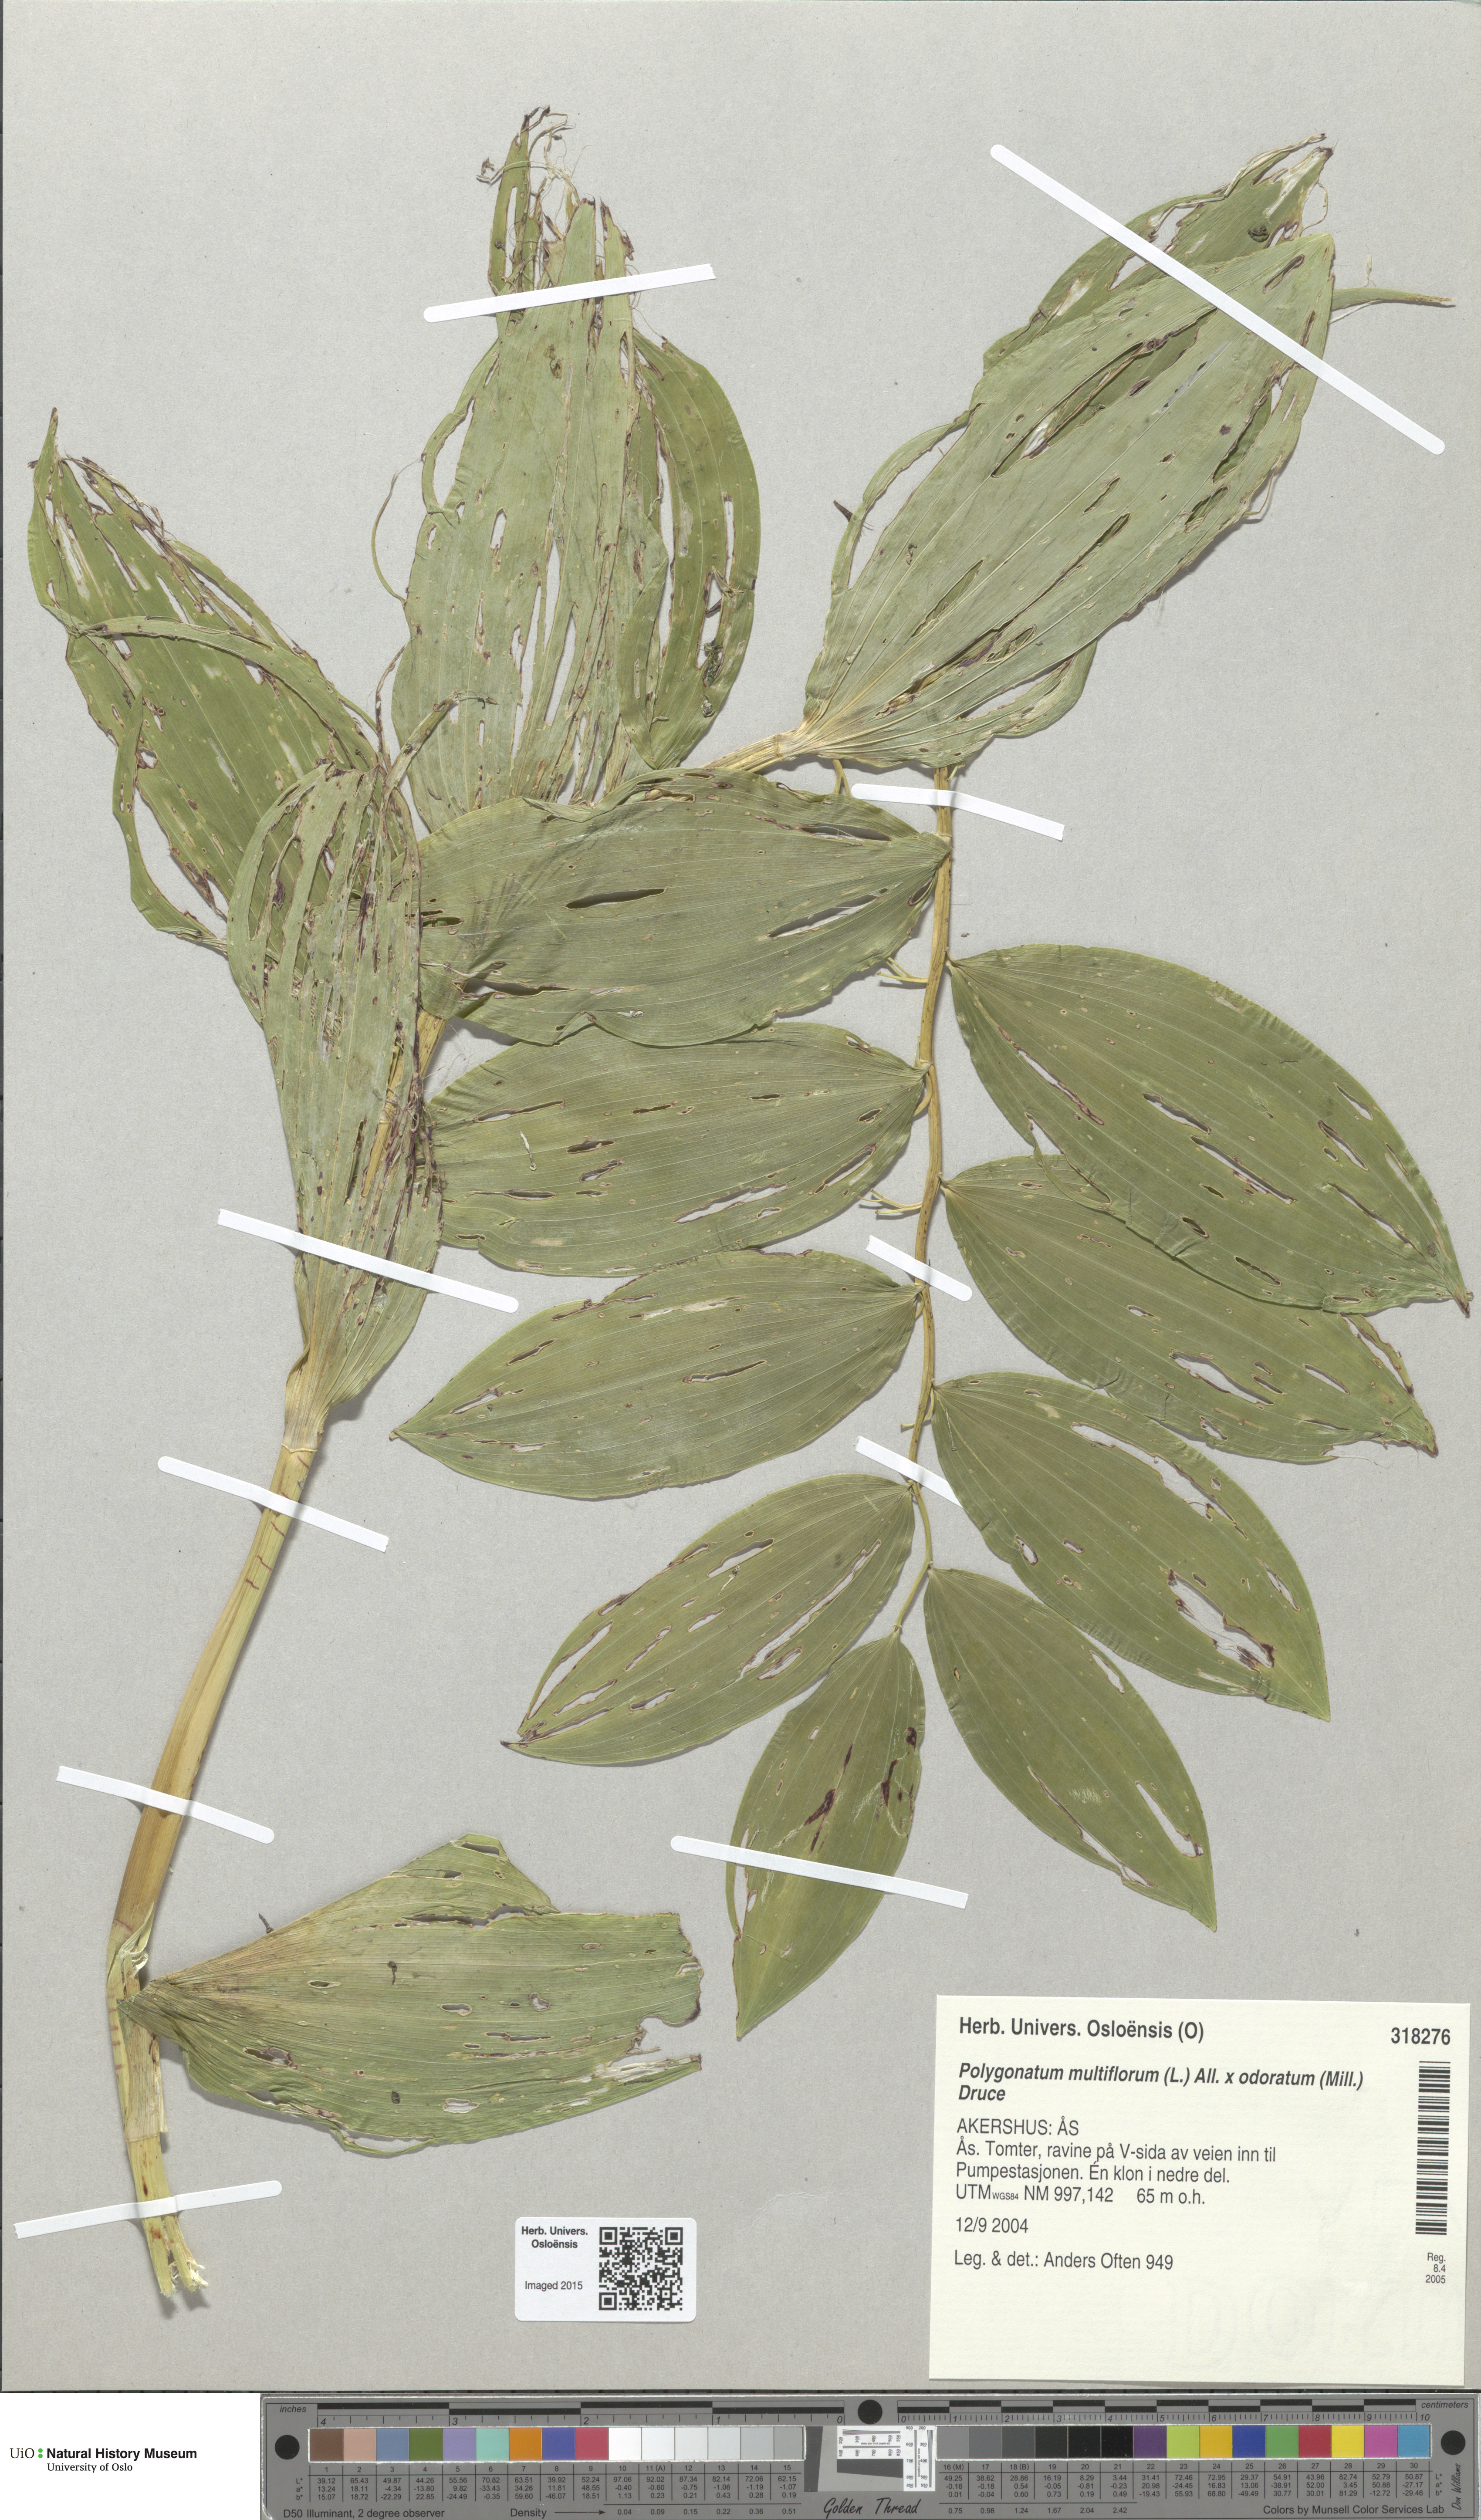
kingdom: Plantae
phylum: Tracheophyta
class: Liliopsida
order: Asparagales
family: Asparagaceae
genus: Polygonatum
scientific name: Polygonatum
